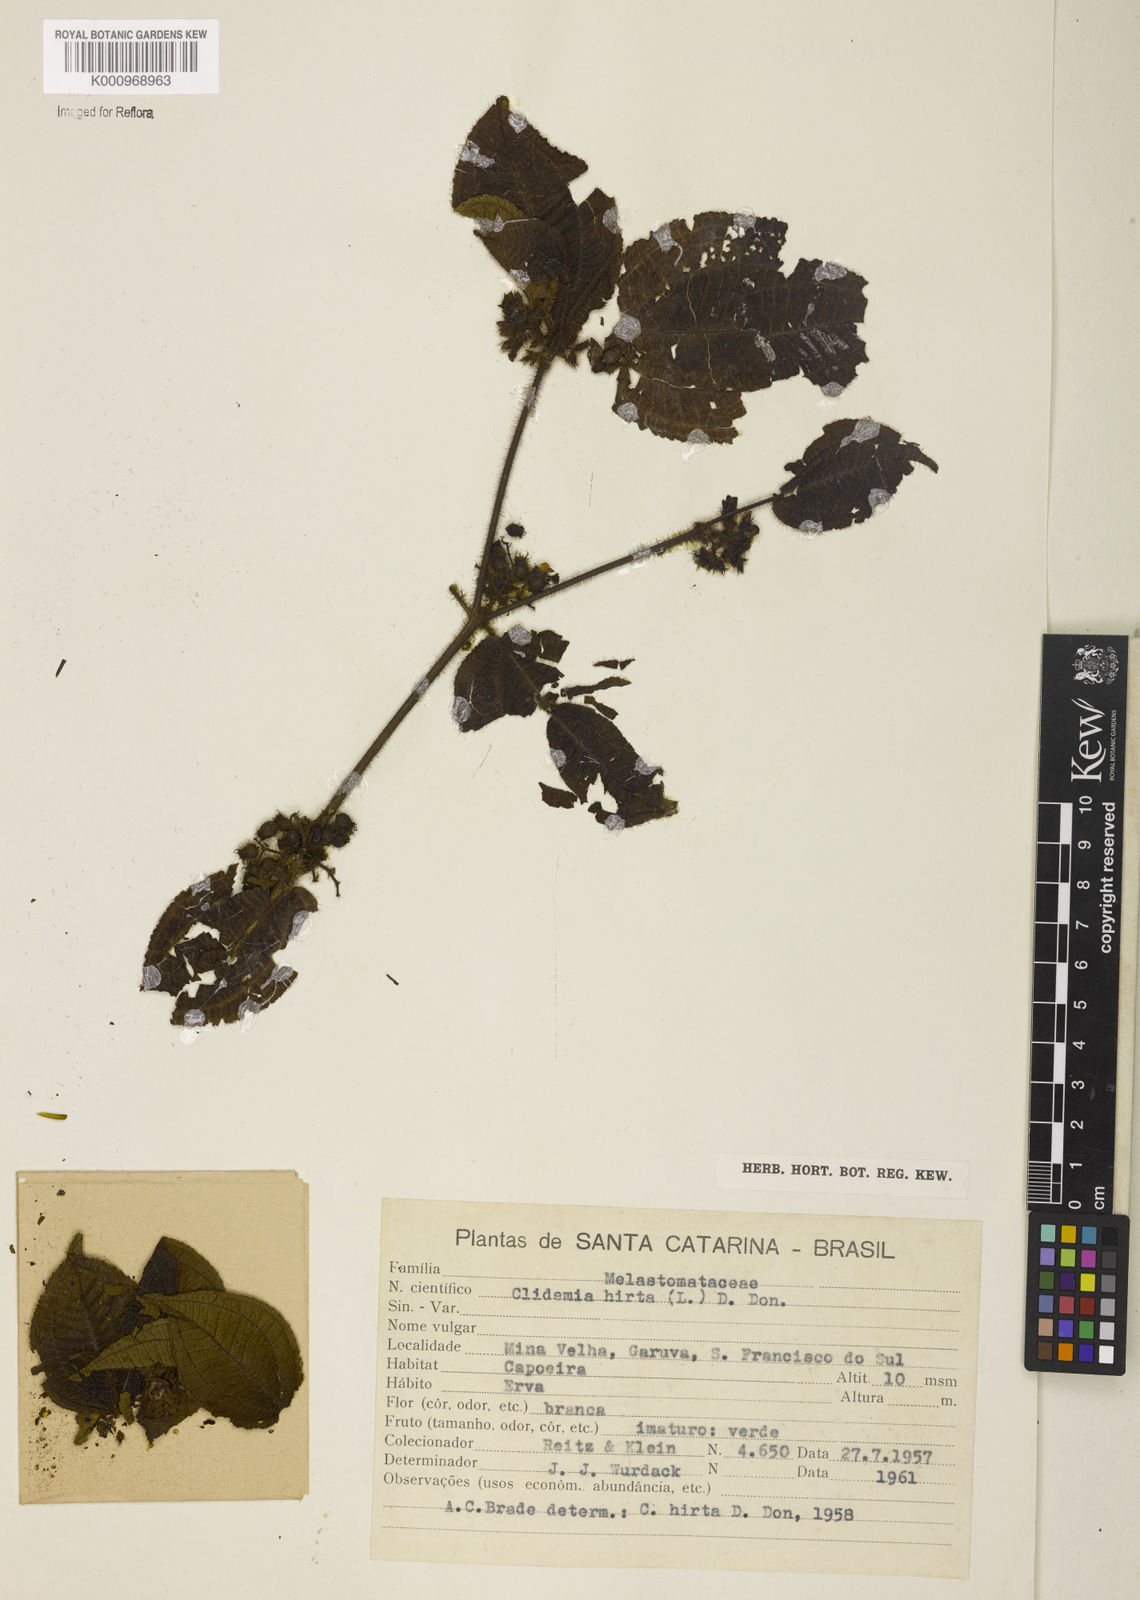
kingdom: Plantae
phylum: Tracheophyta
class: Magnoliopsida
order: Myrtales
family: Melastomataceae
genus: Miconia
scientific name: Miconia crenata
